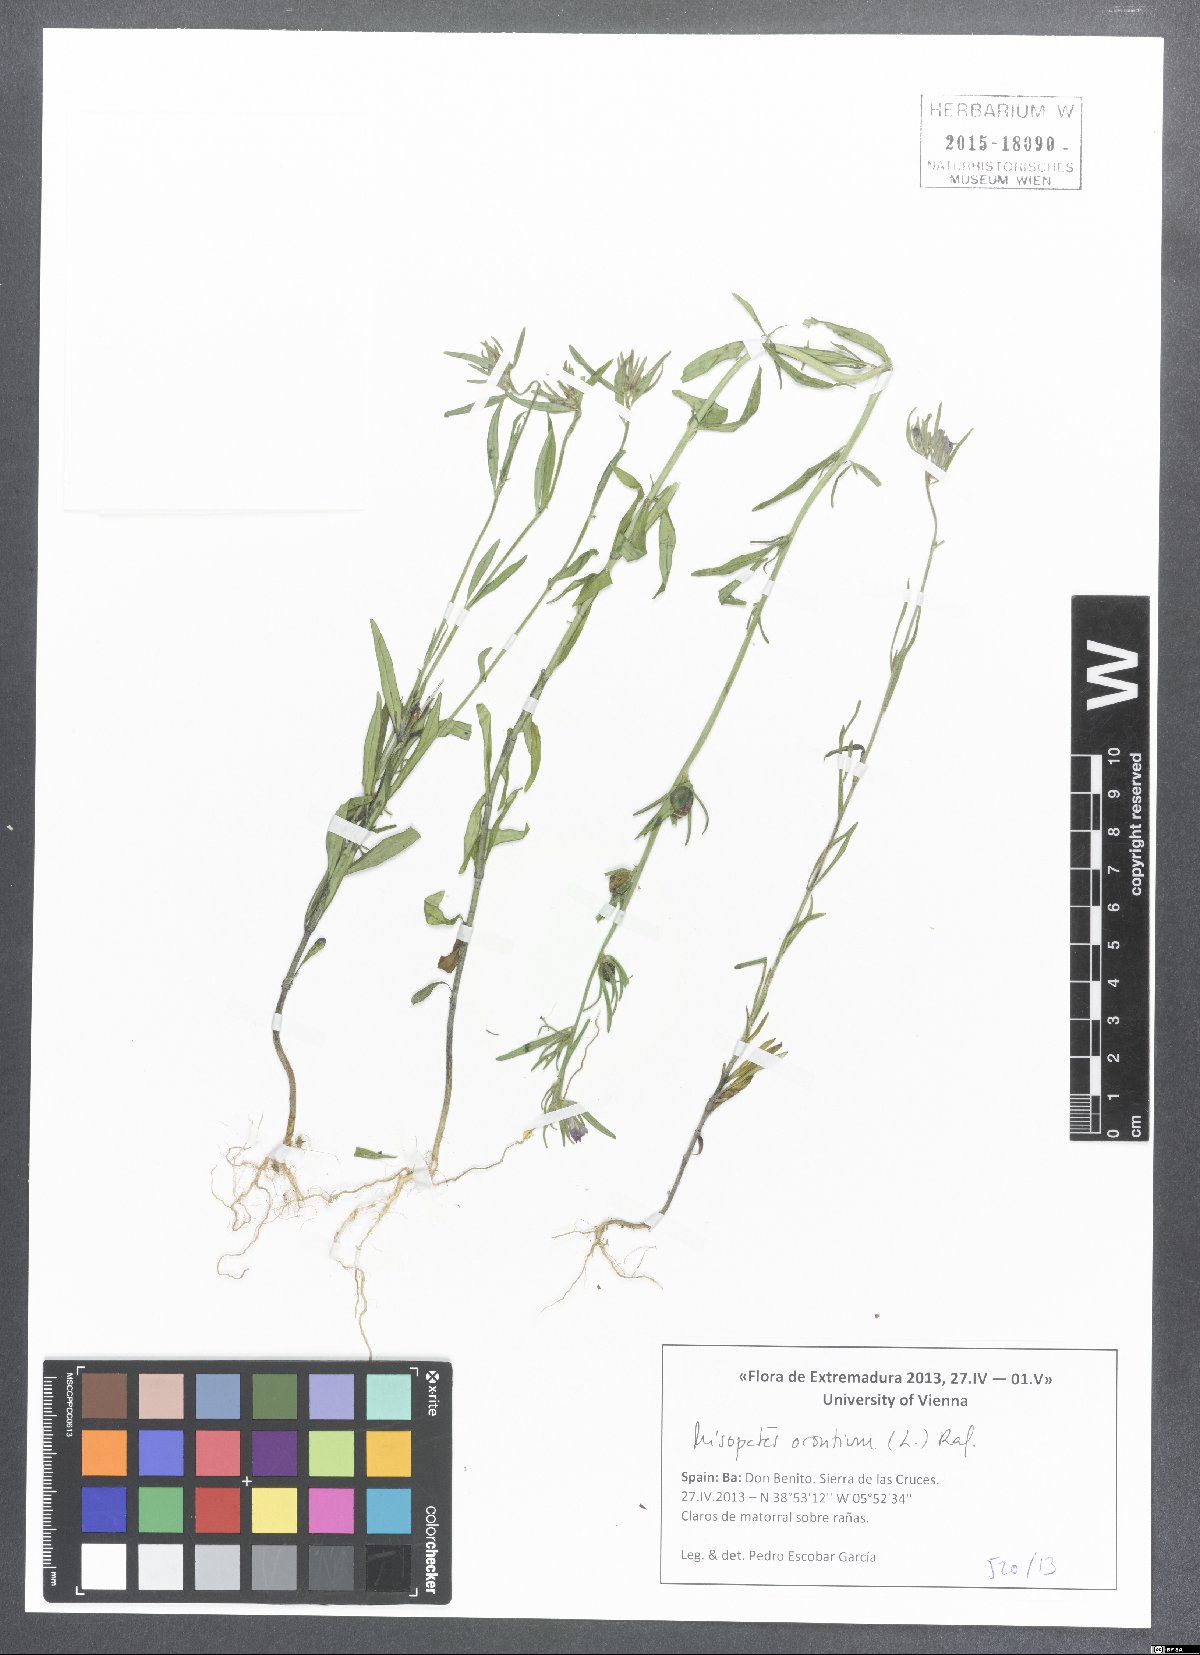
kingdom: Plantae
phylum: Tracheophyta
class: Magnoliopsida
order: Lamiales
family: Plantaginaceae
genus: Misopates
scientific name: Misopates orontium
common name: Weasel's-snout
